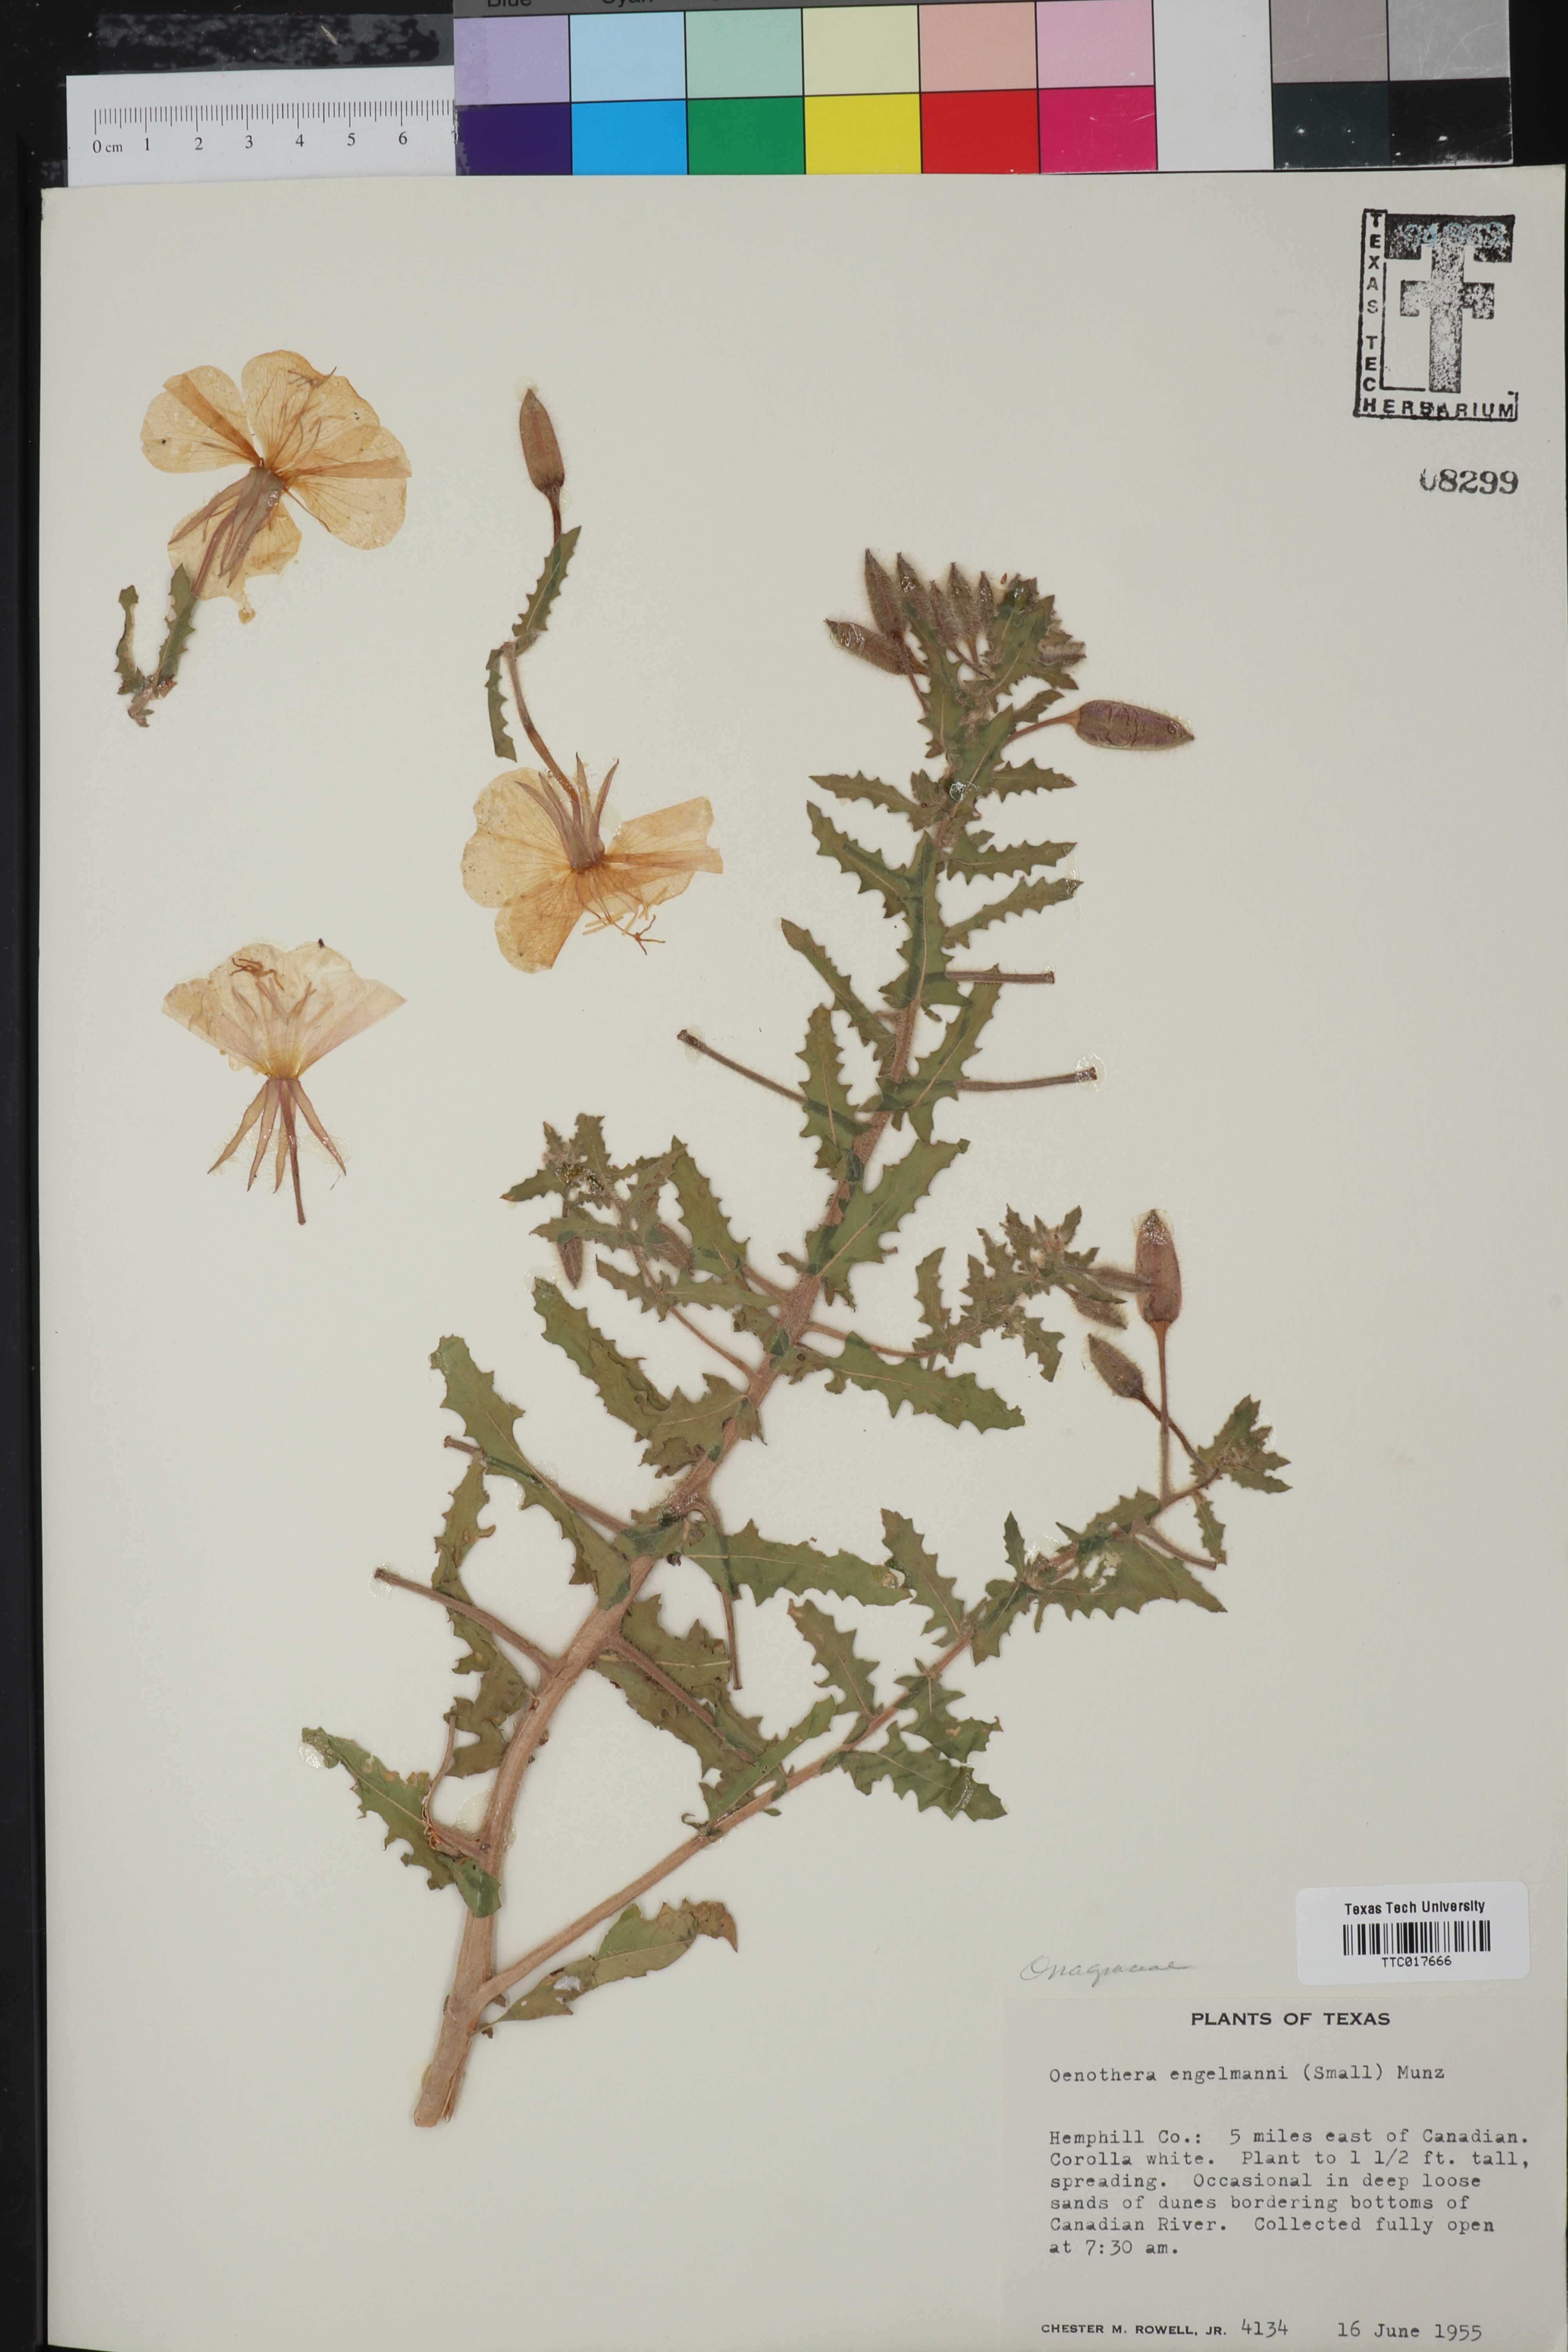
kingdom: Plantae
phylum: Tracheophyta
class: Magnoliopsida
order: Myrtales
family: Onagraceae
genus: Oenothera
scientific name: Oenothera engelmannii
